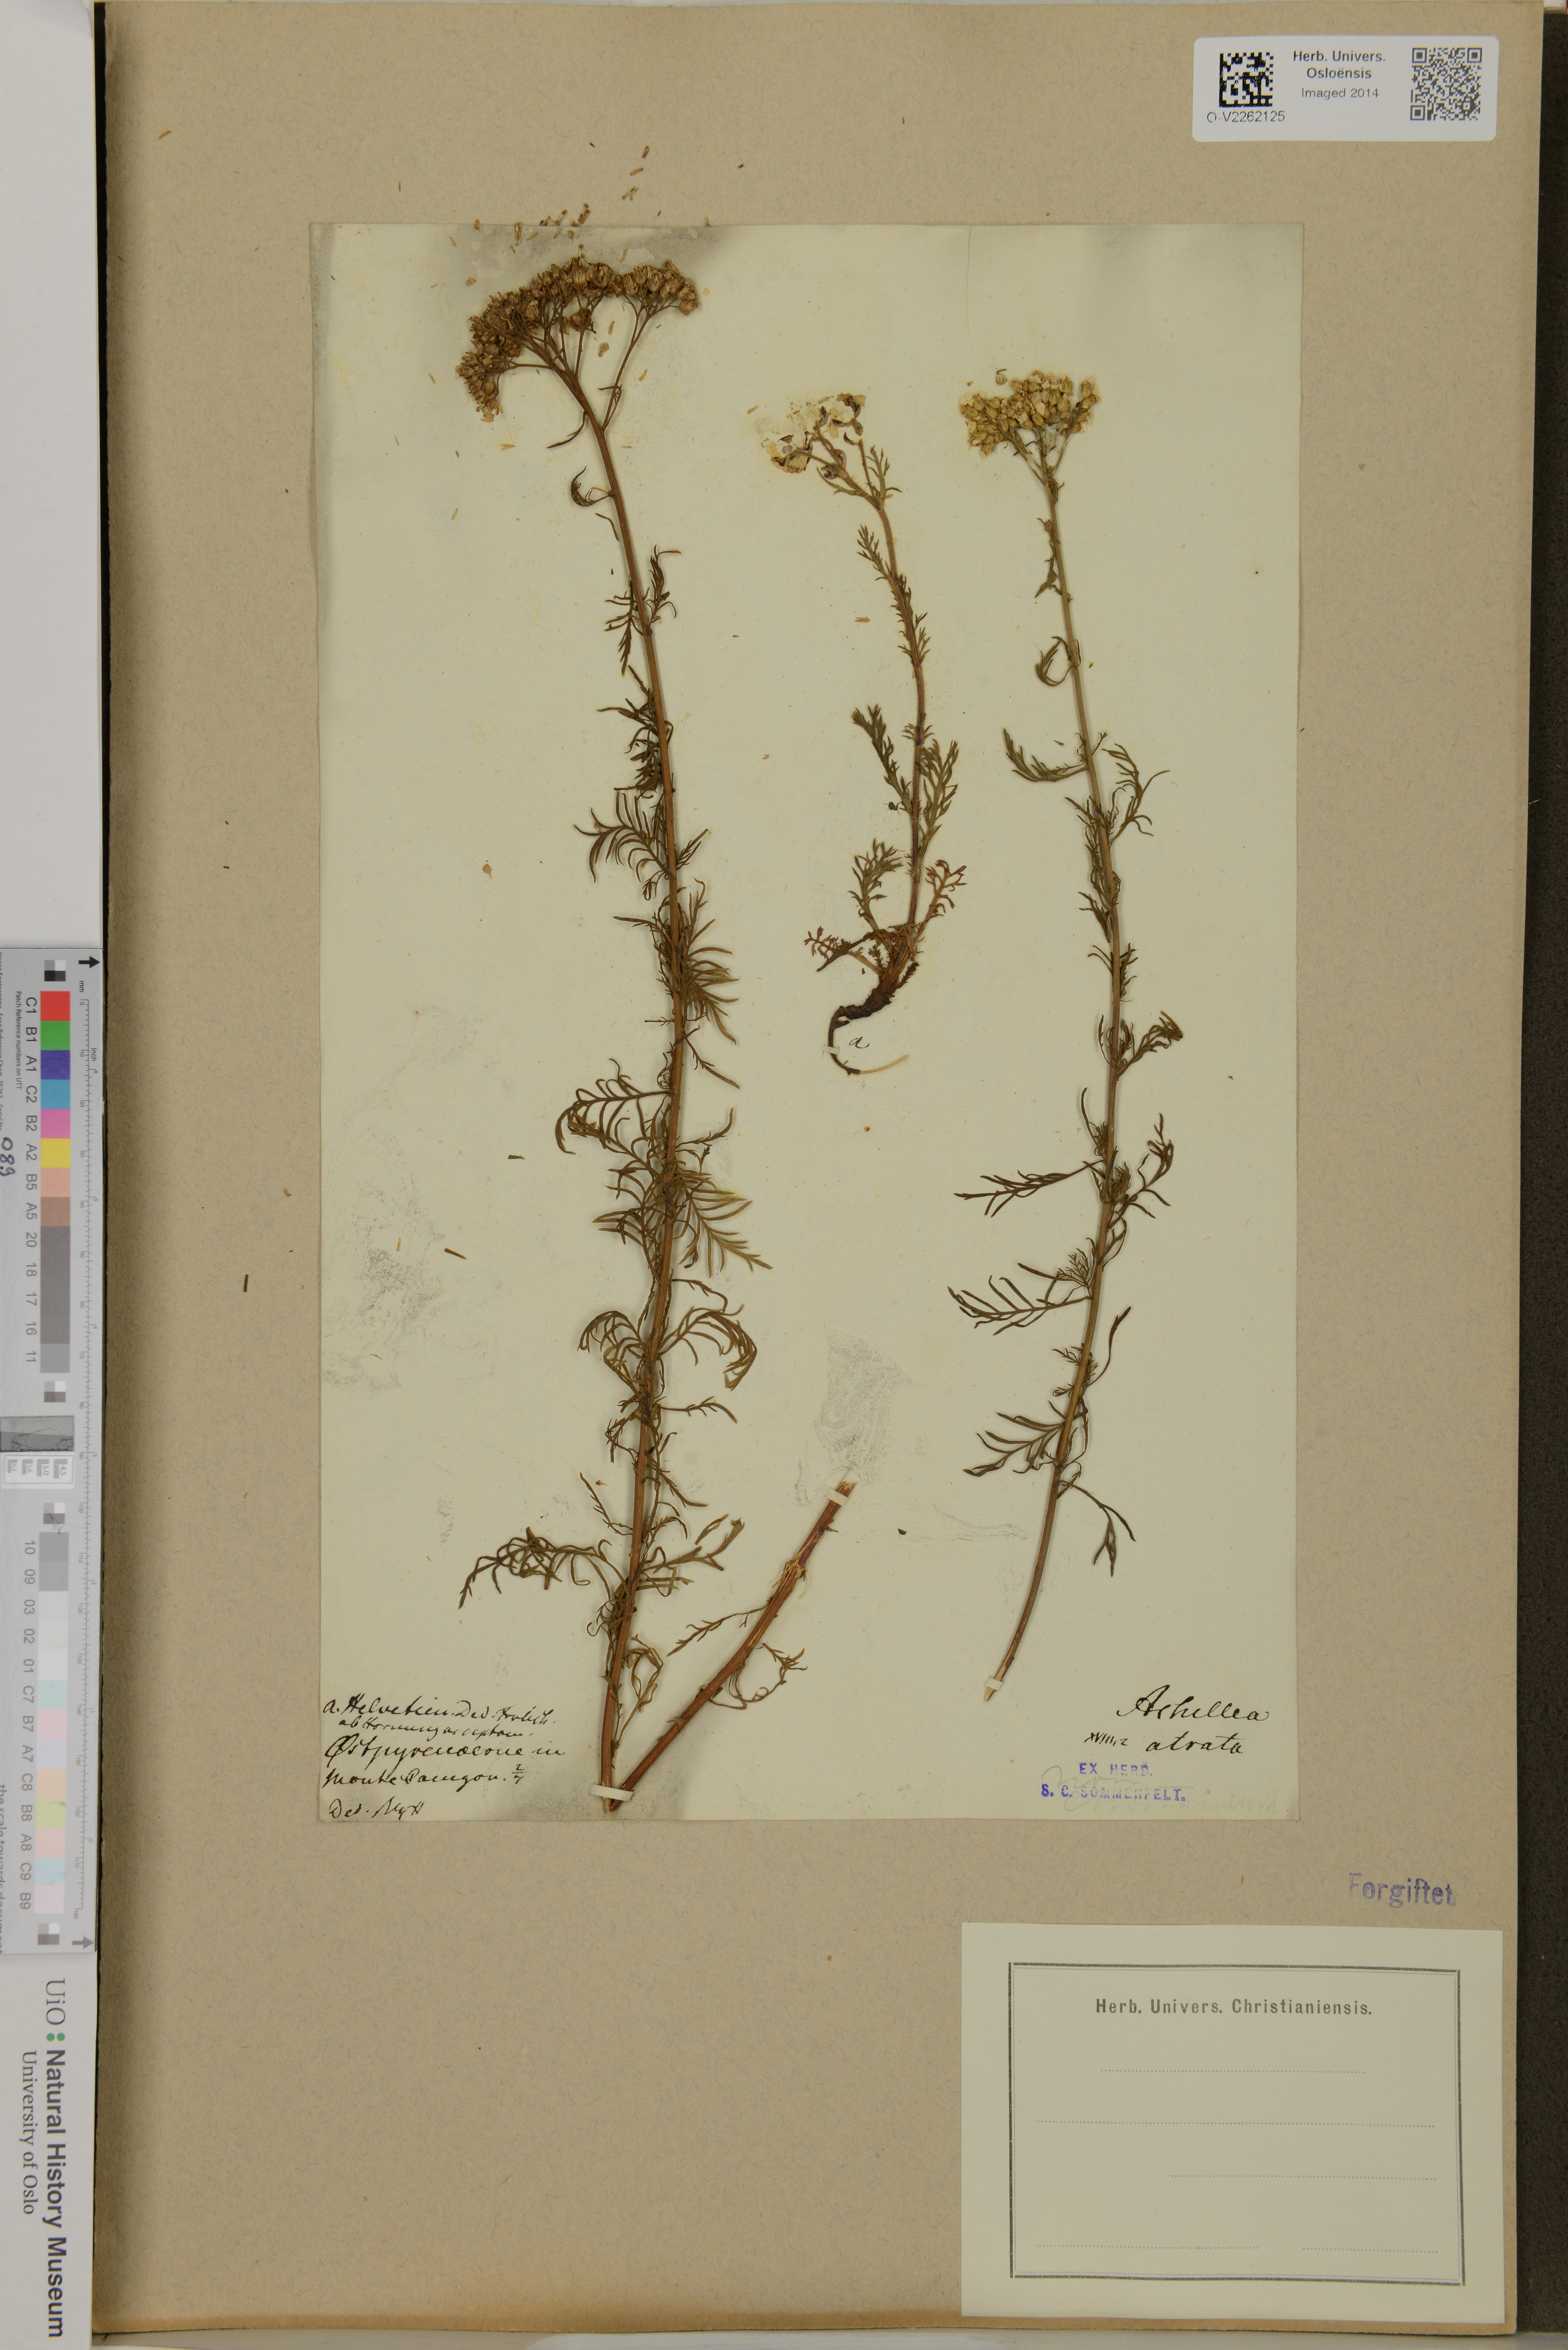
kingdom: Plantae
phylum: Tracheophyta
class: Magnoliopsida
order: Asterales
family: Asteraceae
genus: Achillea
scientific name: Achillea atrata
